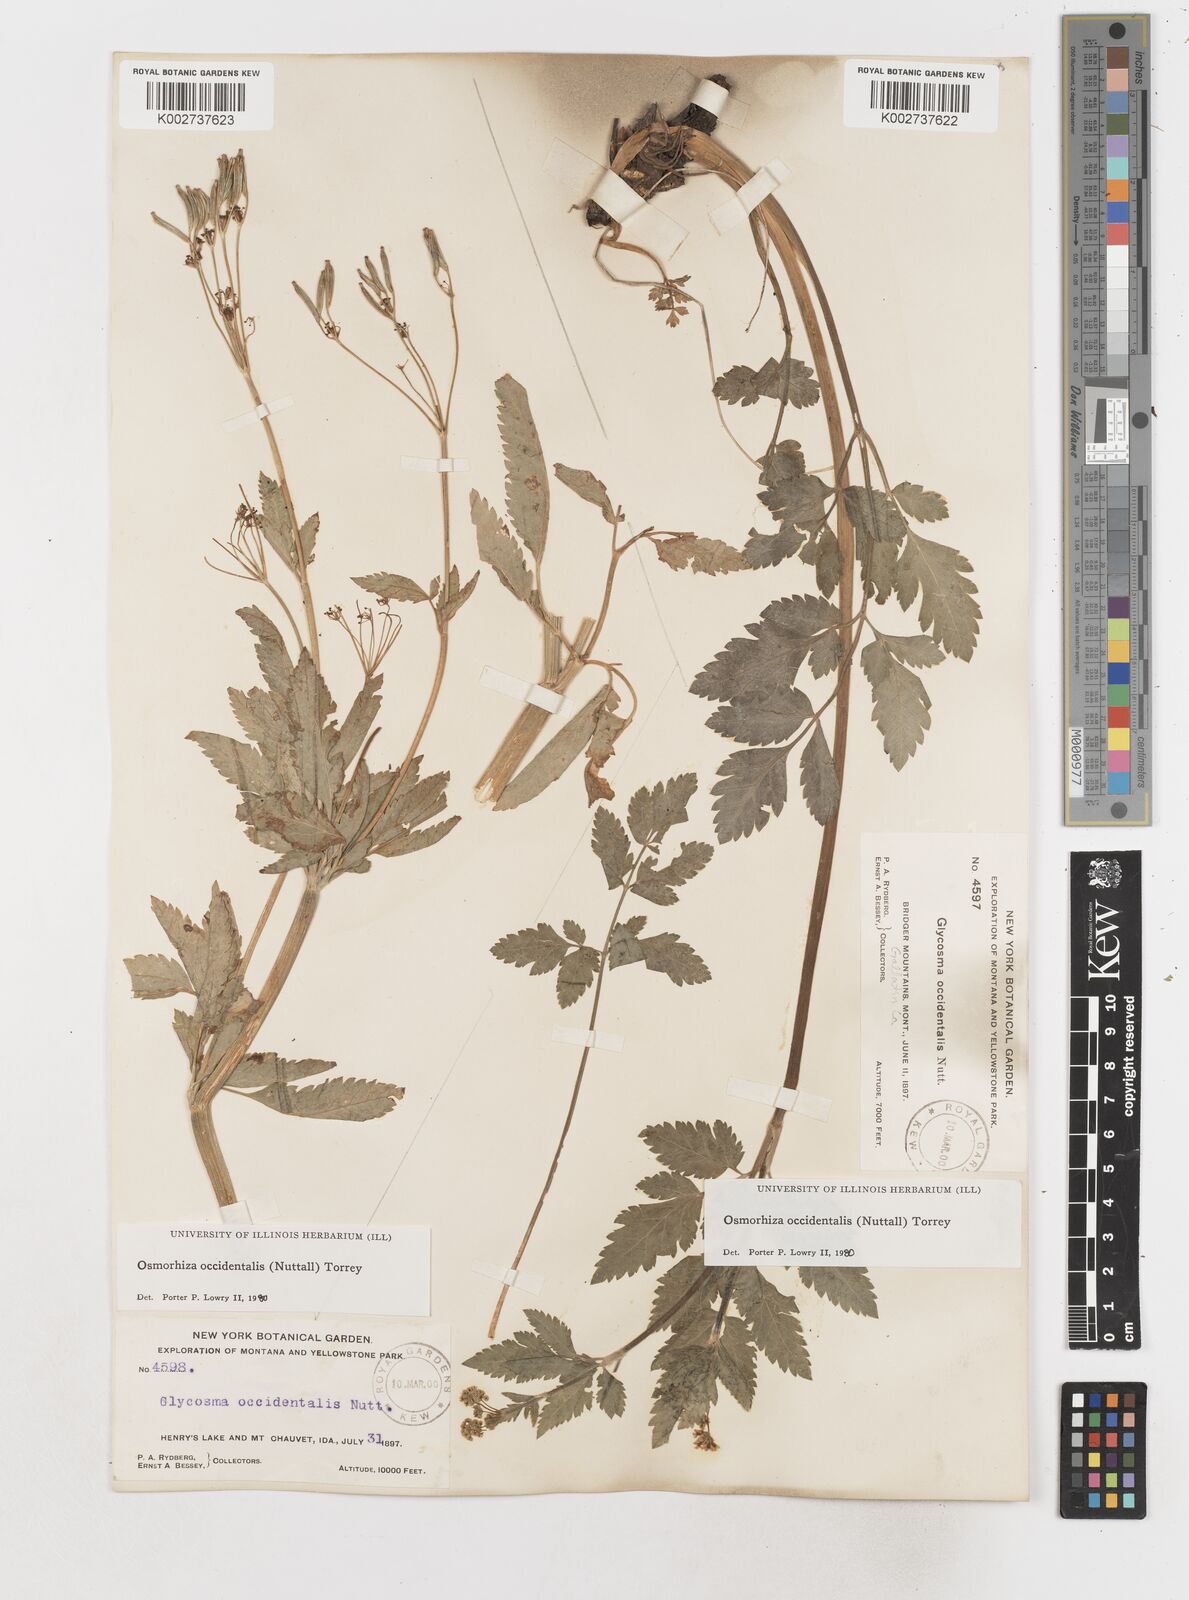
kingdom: Plantae
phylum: Tracheophyta
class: Magnoliopsida
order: Apiales
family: Apiaceae
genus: Osmorhiza
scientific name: Osmorhiza occidentalis
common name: Western sweet cicely
